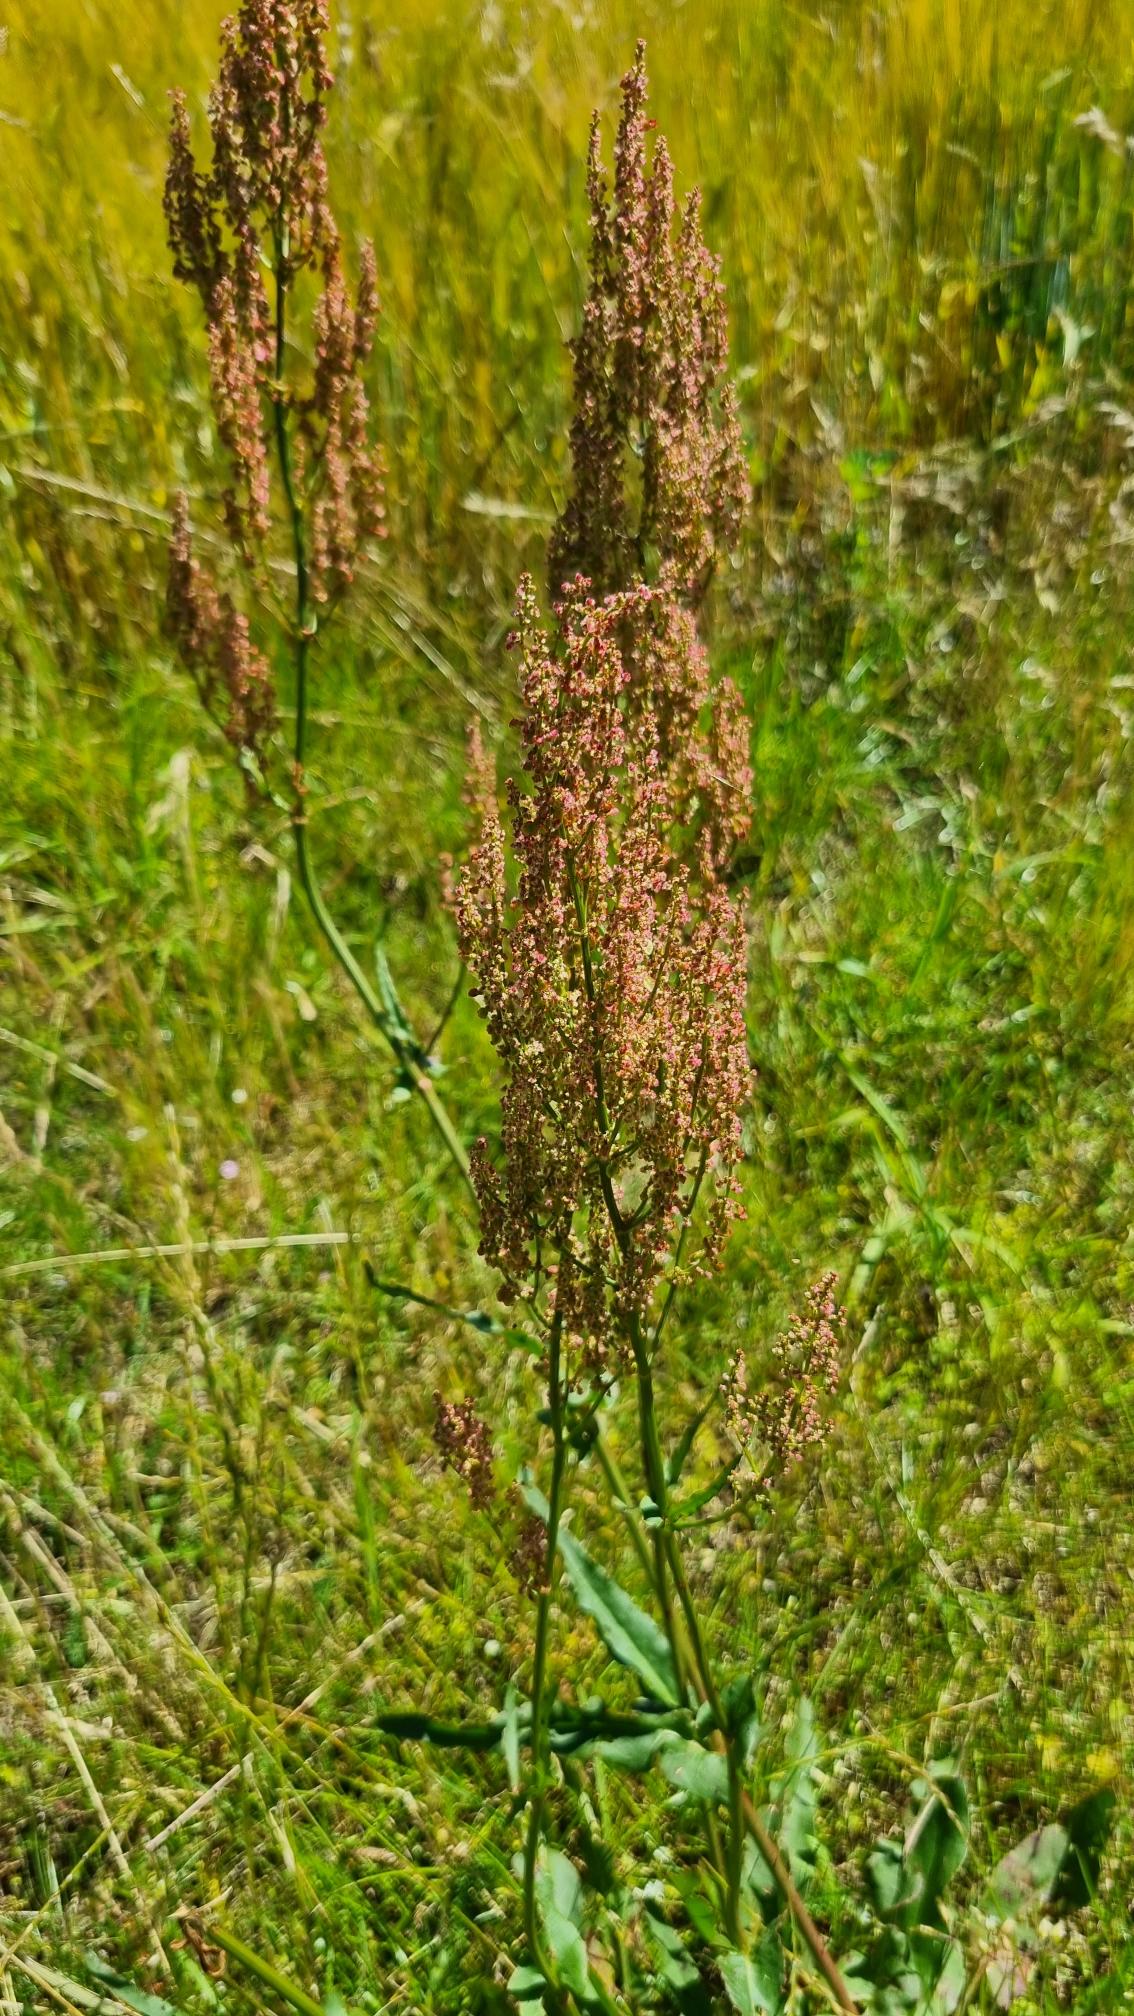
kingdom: Plantae
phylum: Tracheophyta
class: Magnoliopsida
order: Caryophyllales
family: Polygonaceae
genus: Rumex
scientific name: Rumex thyrsiflorus
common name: Dusk-syre
